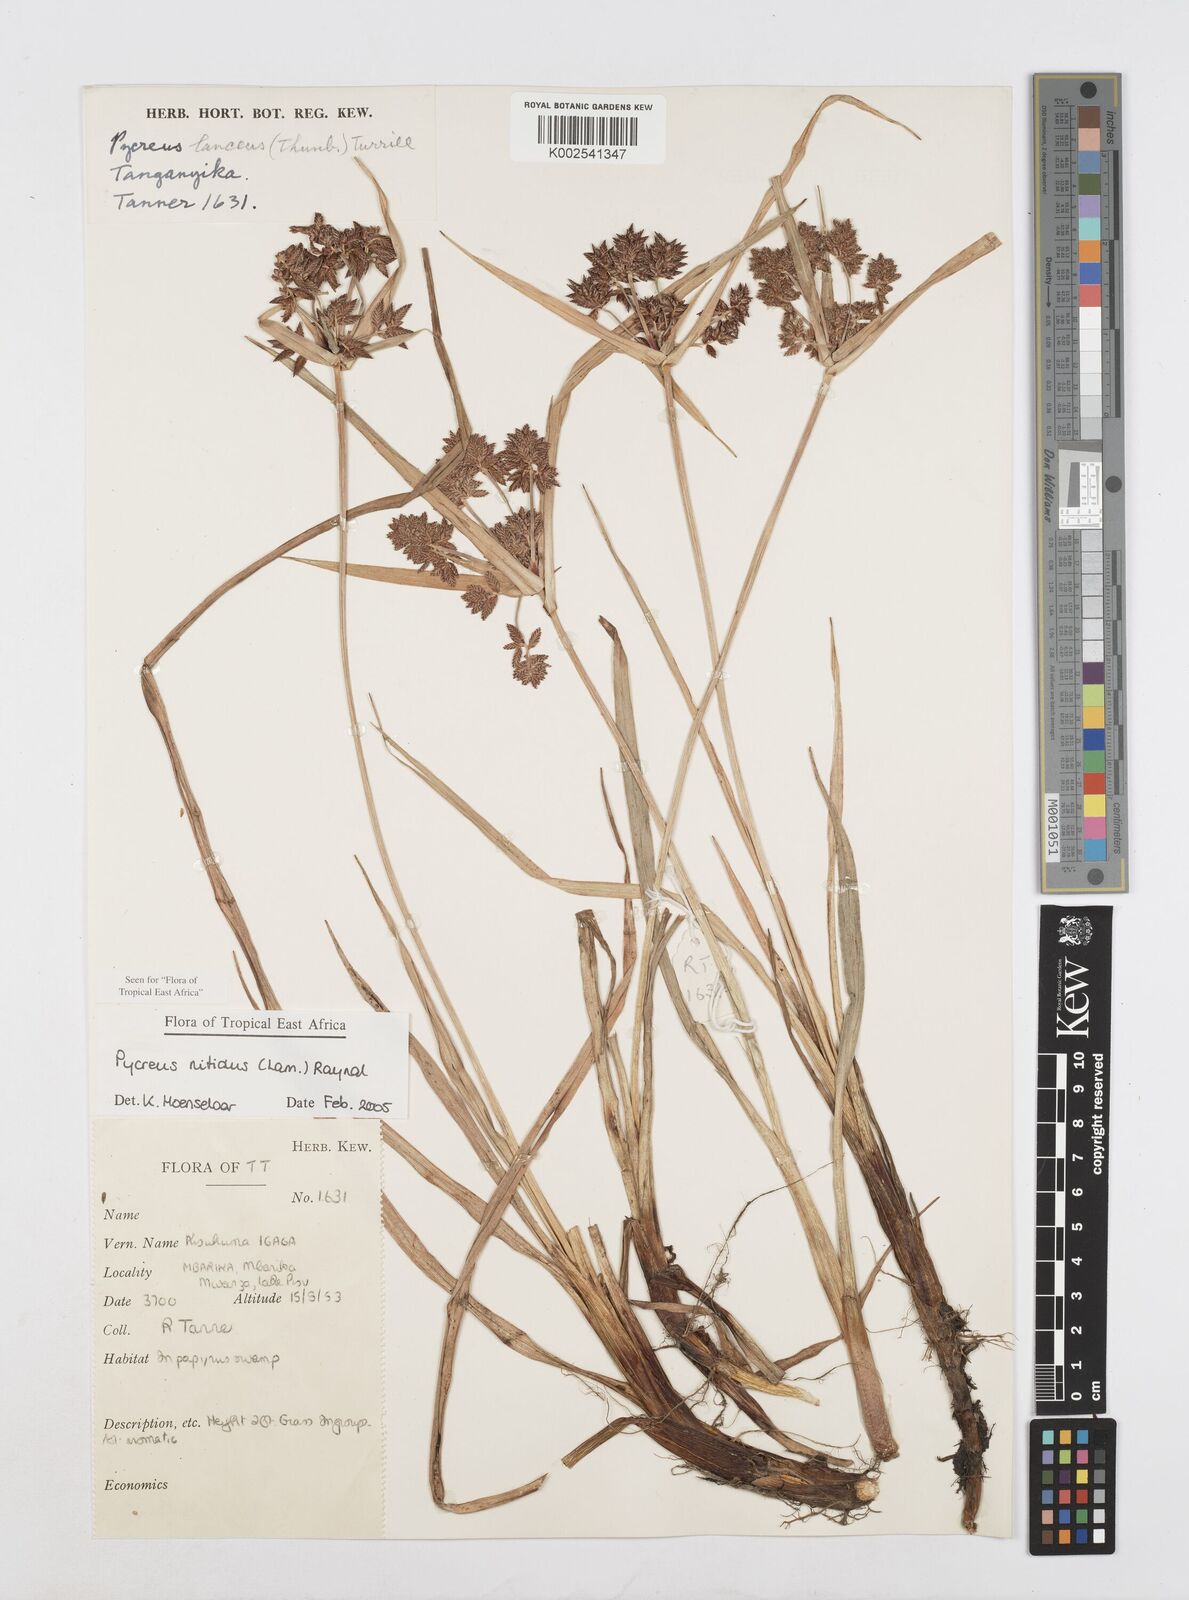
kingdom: Plantae
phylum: Tracheophyta
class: Liliopsida
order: Poales
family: Cyperaceae
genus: Cyperus
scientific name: Cyperus nitidus
